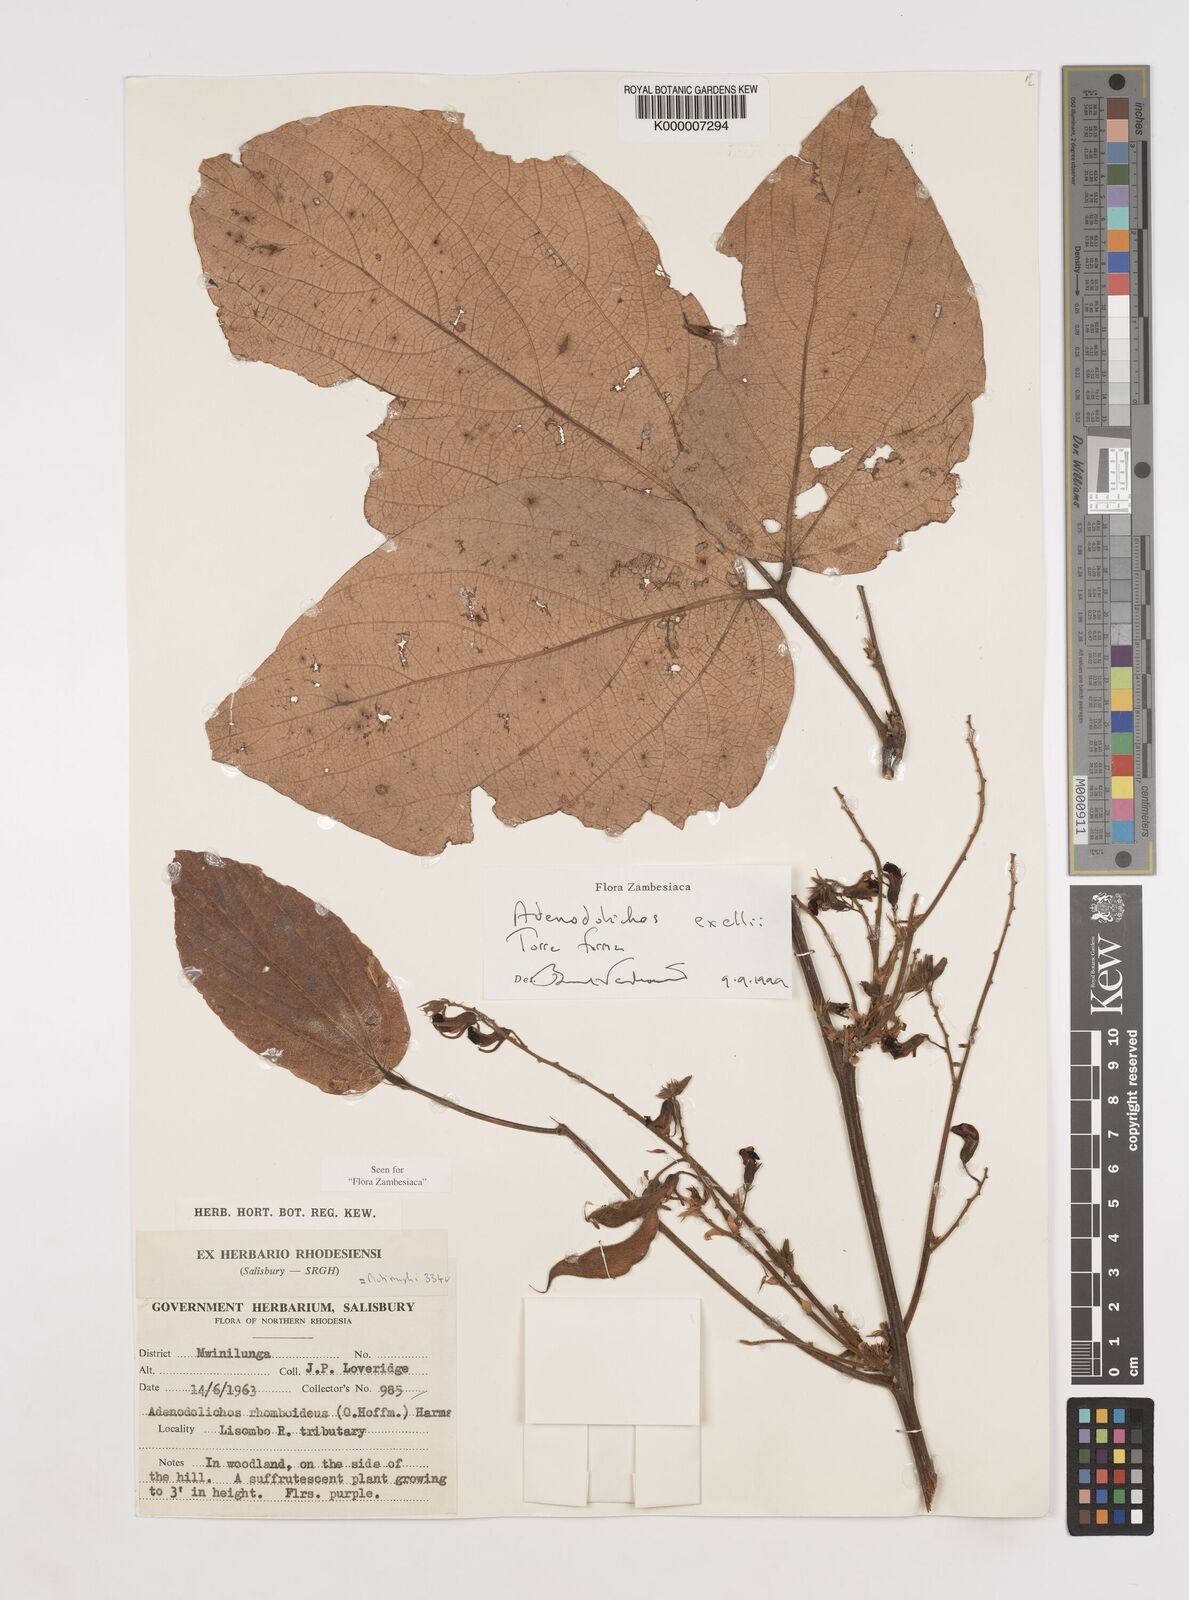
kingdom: Plantae
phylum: Tracheophyta
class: Magnoliopsida
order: Fabales
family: Fabaceae
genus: Adenodolichos
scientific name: Adenodolichos exellii
